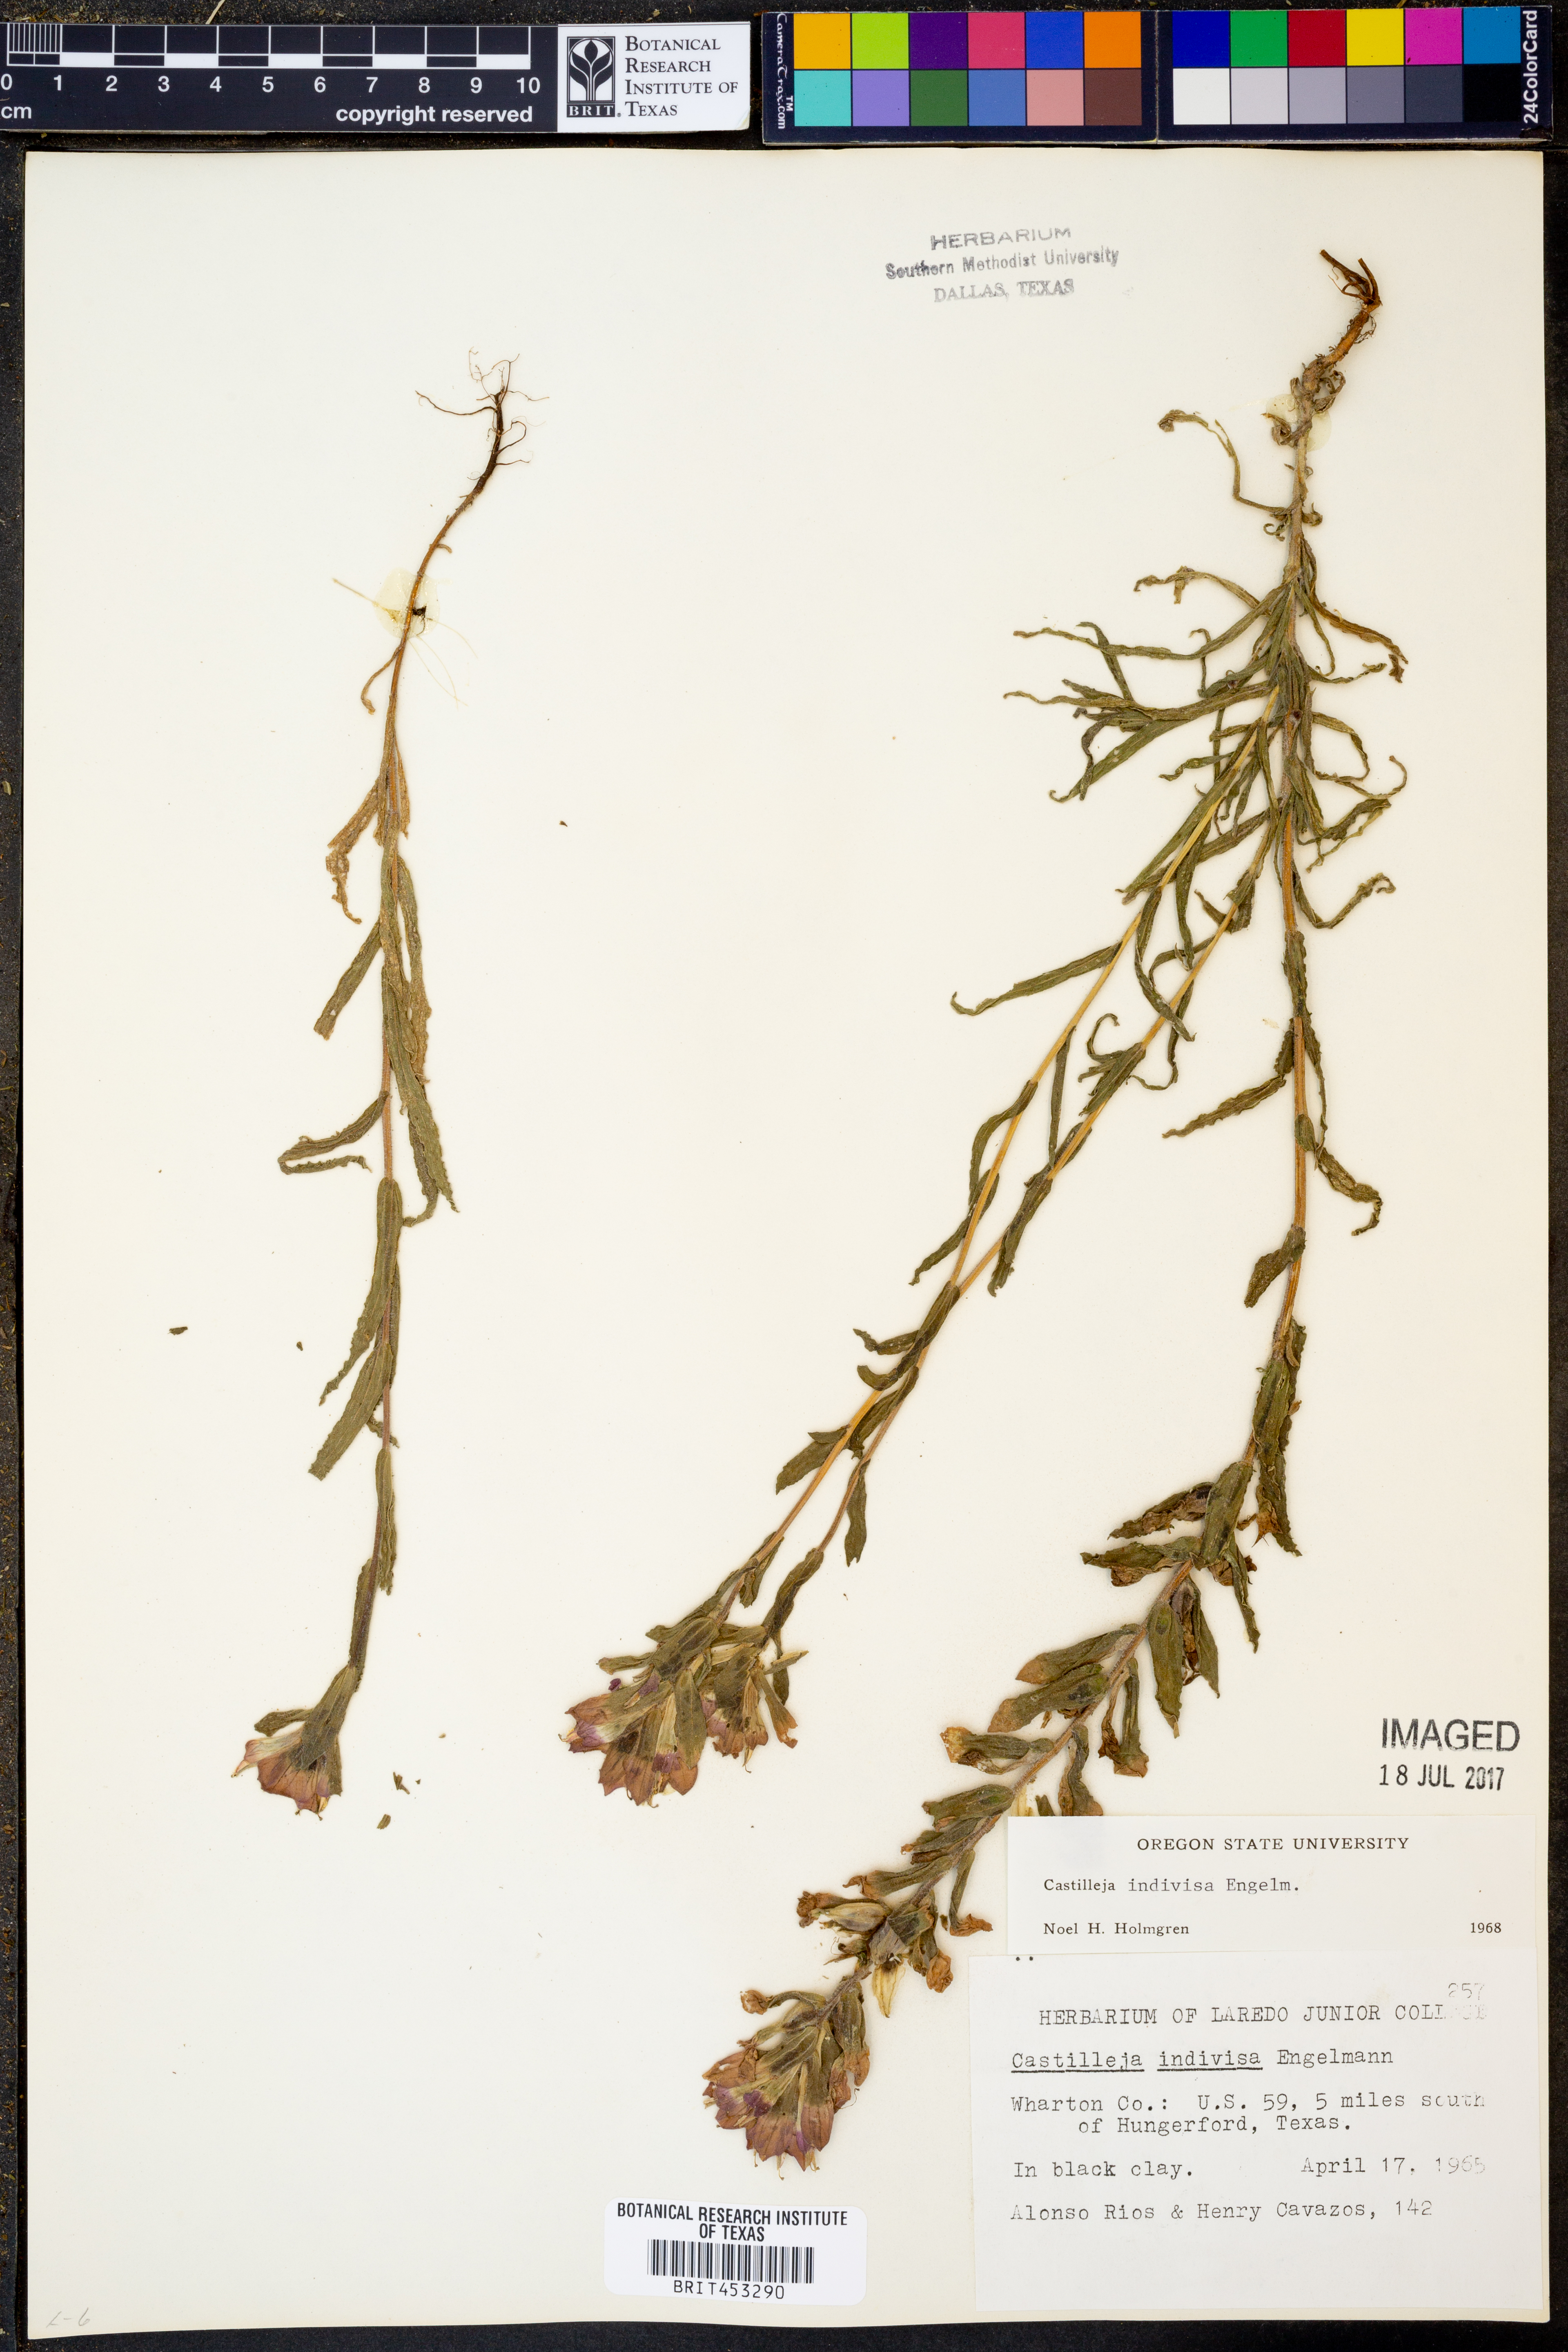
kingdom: Plantae
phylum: Tracheophyta
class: Magnoliopsida
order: Lamiales
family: Orobanchaceae
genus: Castilleja
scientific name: Castilleja indivisa
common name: Texas paintbrush
